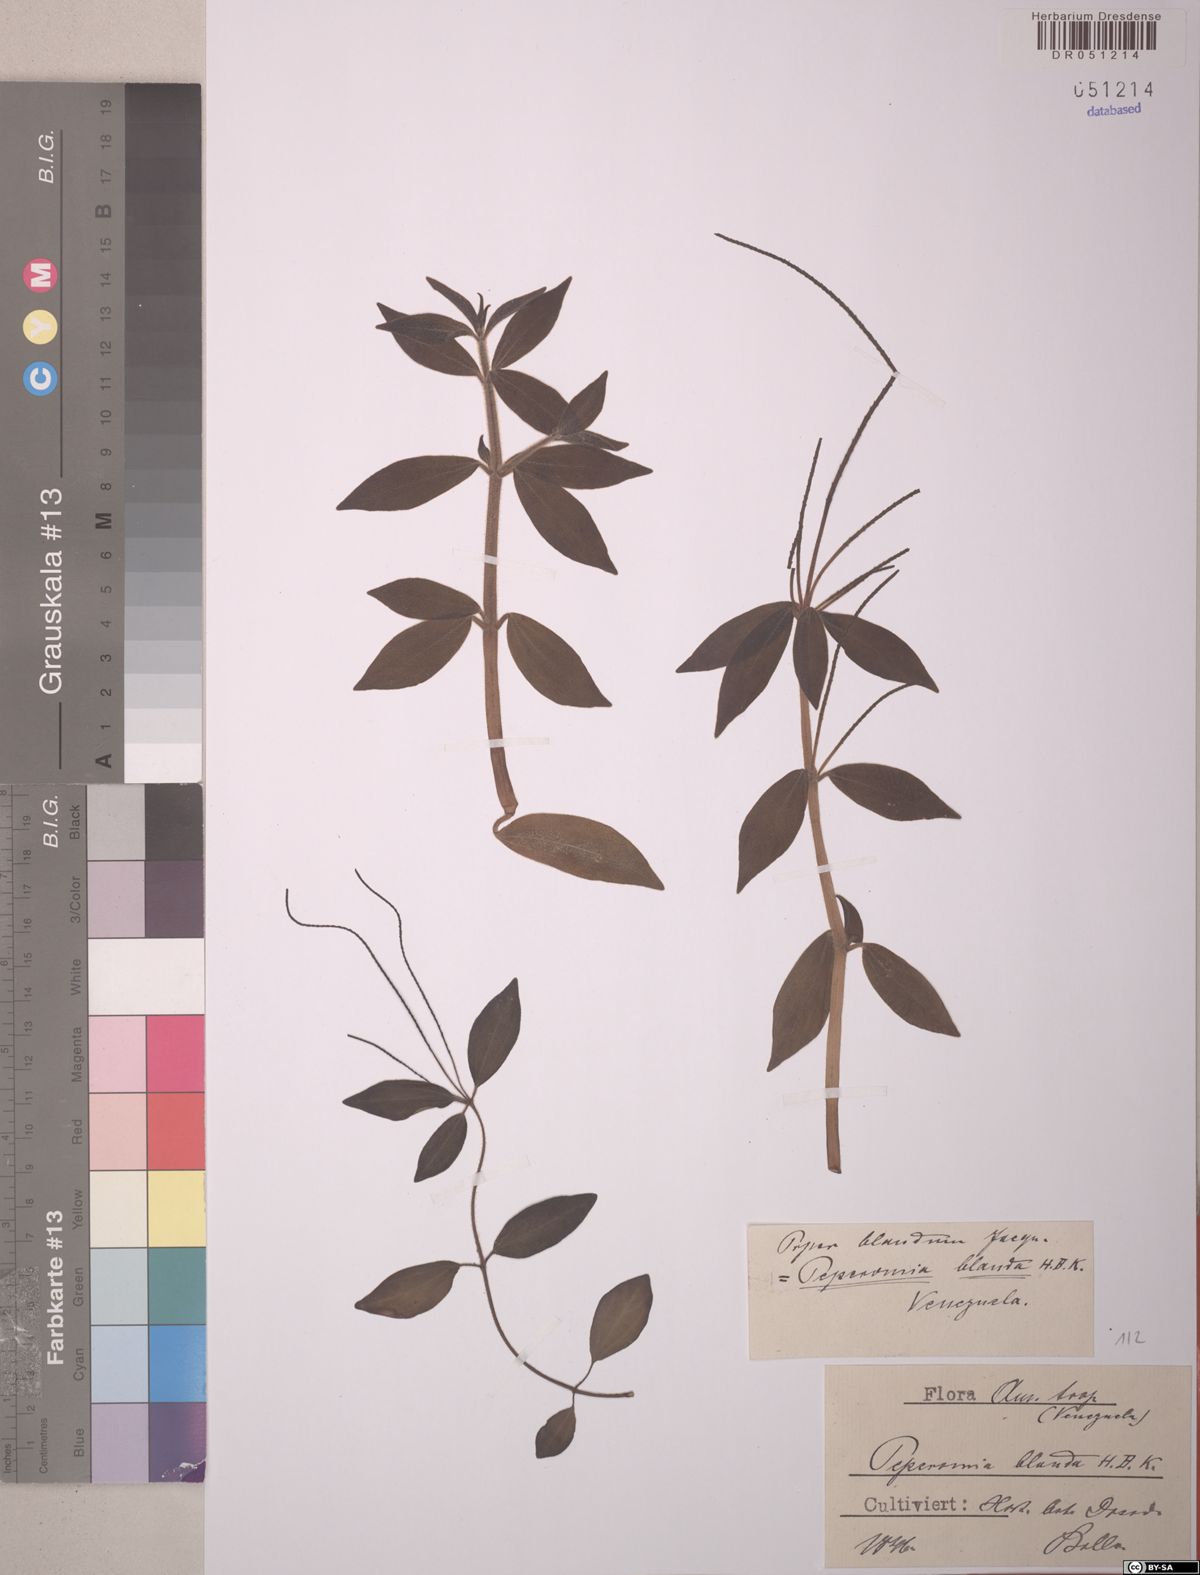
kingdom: Plantae
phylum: Tracheophyta
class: Magnoliopsida
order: Piperales
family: Piperaceae
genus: Peperomia
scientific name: Peperomia blanda
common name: Arid-land peperomia
